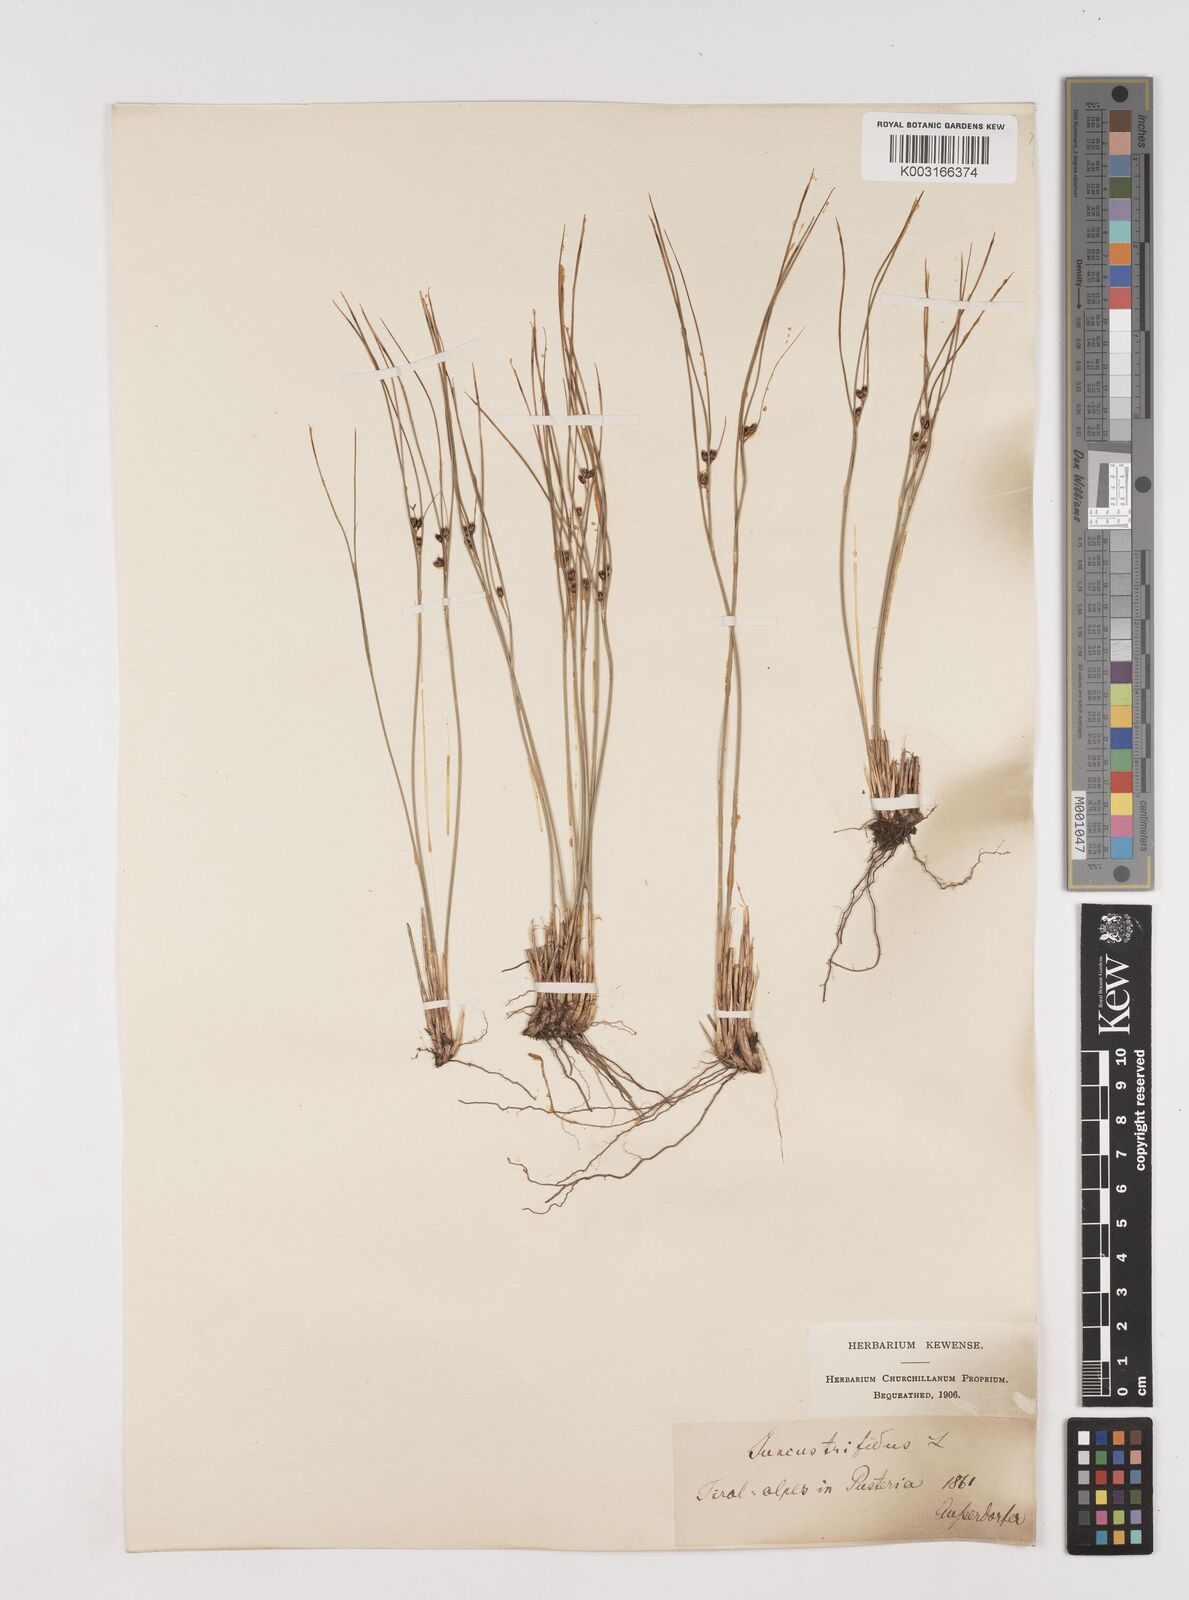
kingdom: Plantae
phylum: Tracheophyta
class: Liliopsida
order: Poales
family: Juncaceae
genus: Oreojuncus
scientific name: Oreojuncus trifidus
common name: Highland rush
